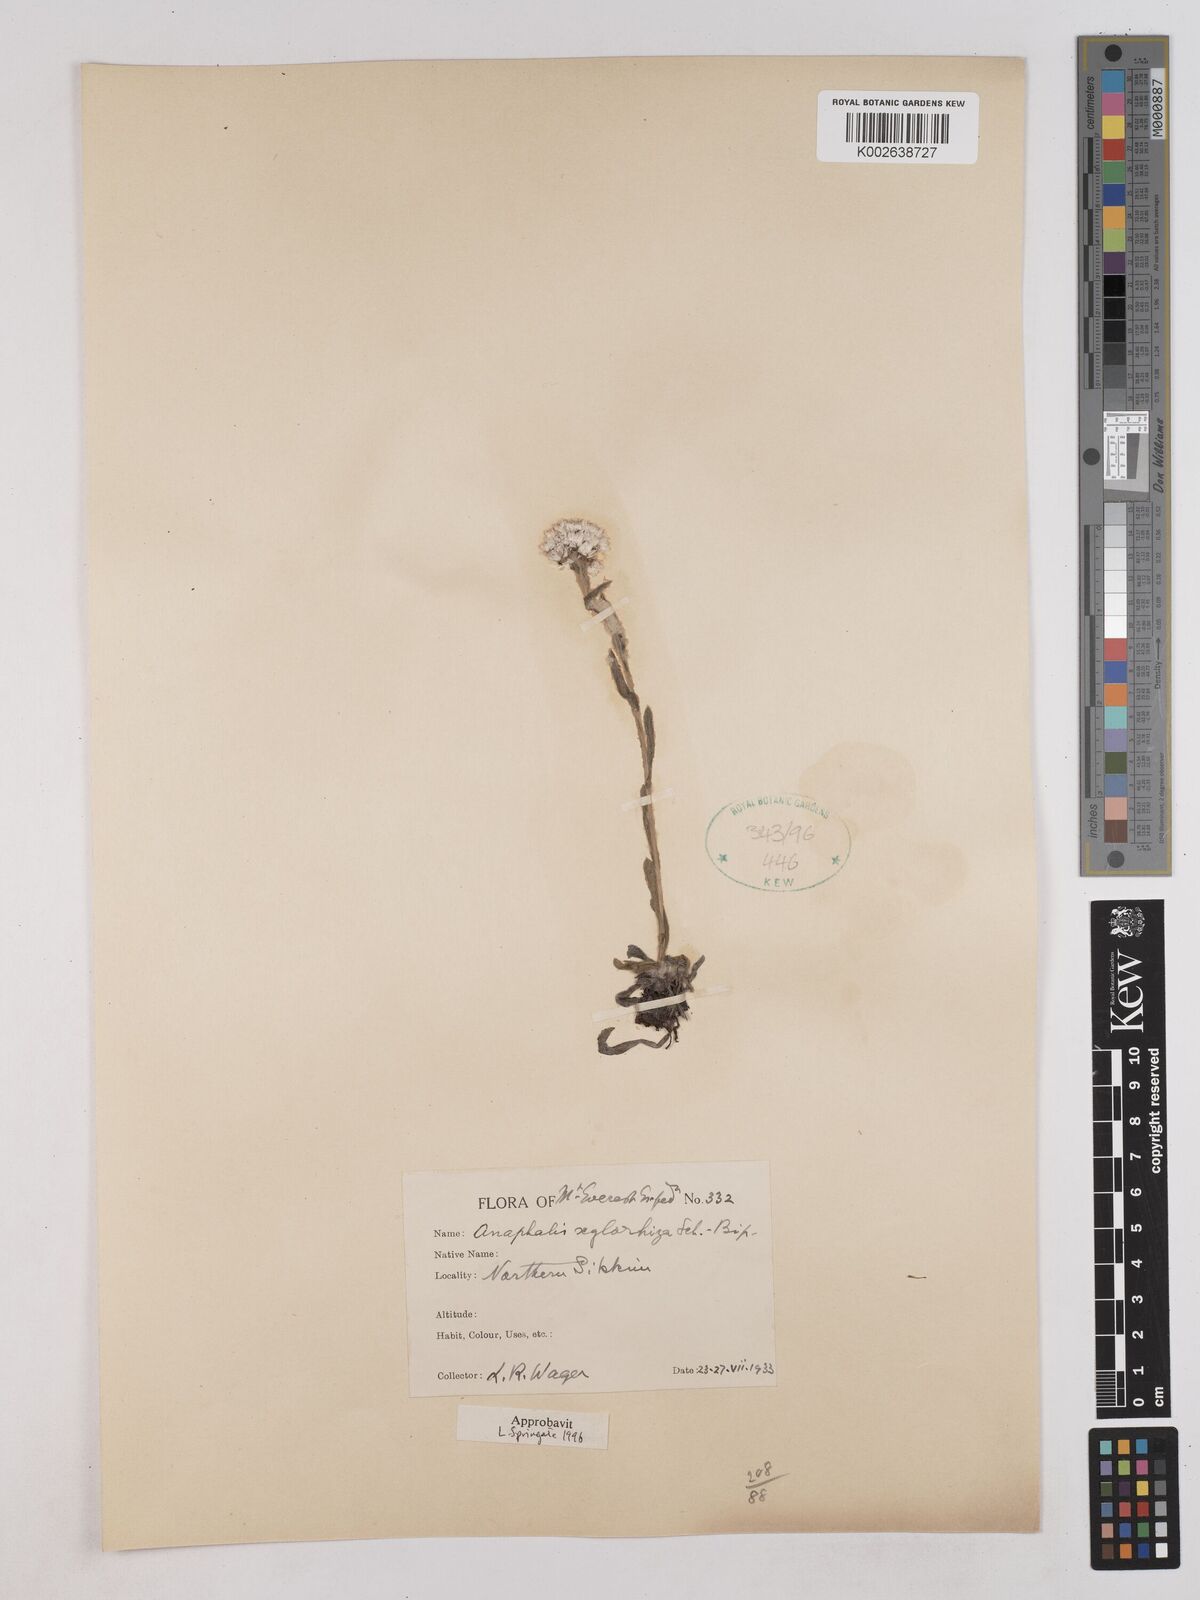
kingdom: Plantae
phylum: Tracheophyta
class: Magnoliopsida
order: Asterales
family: Asteraceae
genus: Anaphalis
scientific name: Anaphalis xylorhiza
